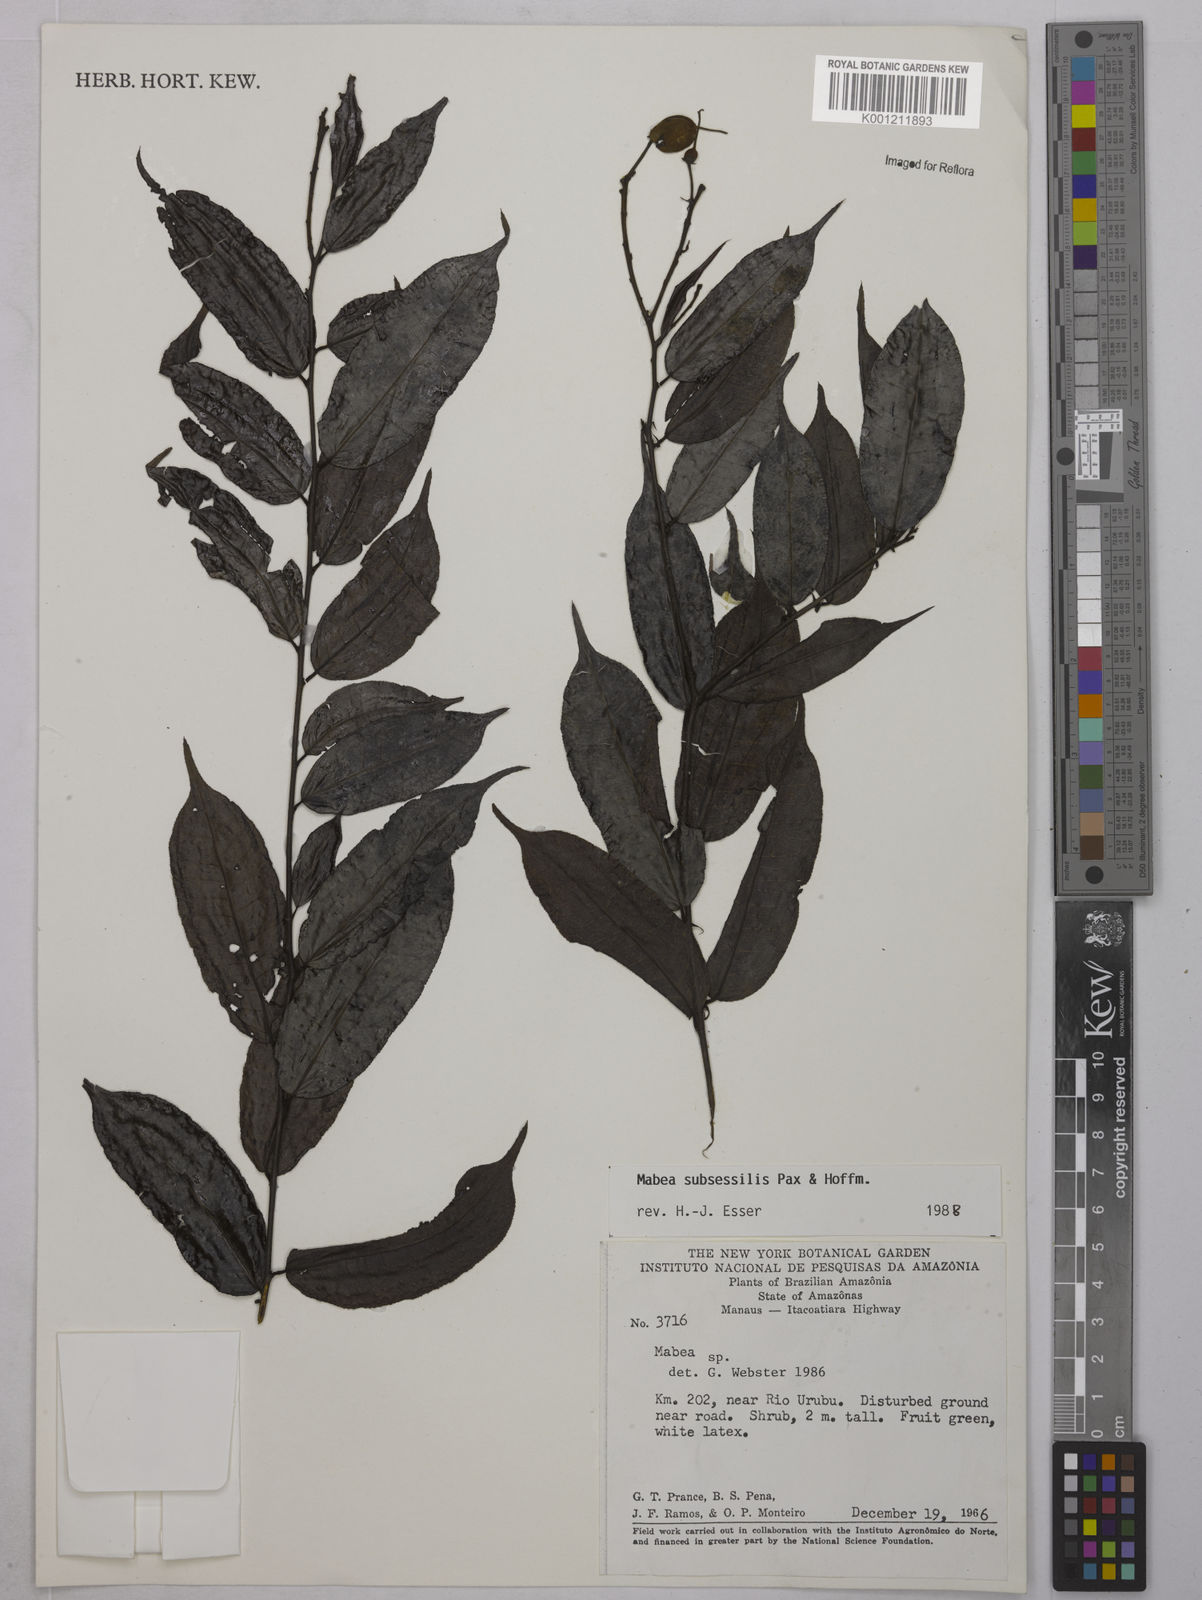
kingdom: Plantae
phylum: Tracheophyta
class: Magnoliopsida
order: Malpighiales
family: Euphorbiaceae
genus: Mabea
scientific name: Mabea subsessilis
